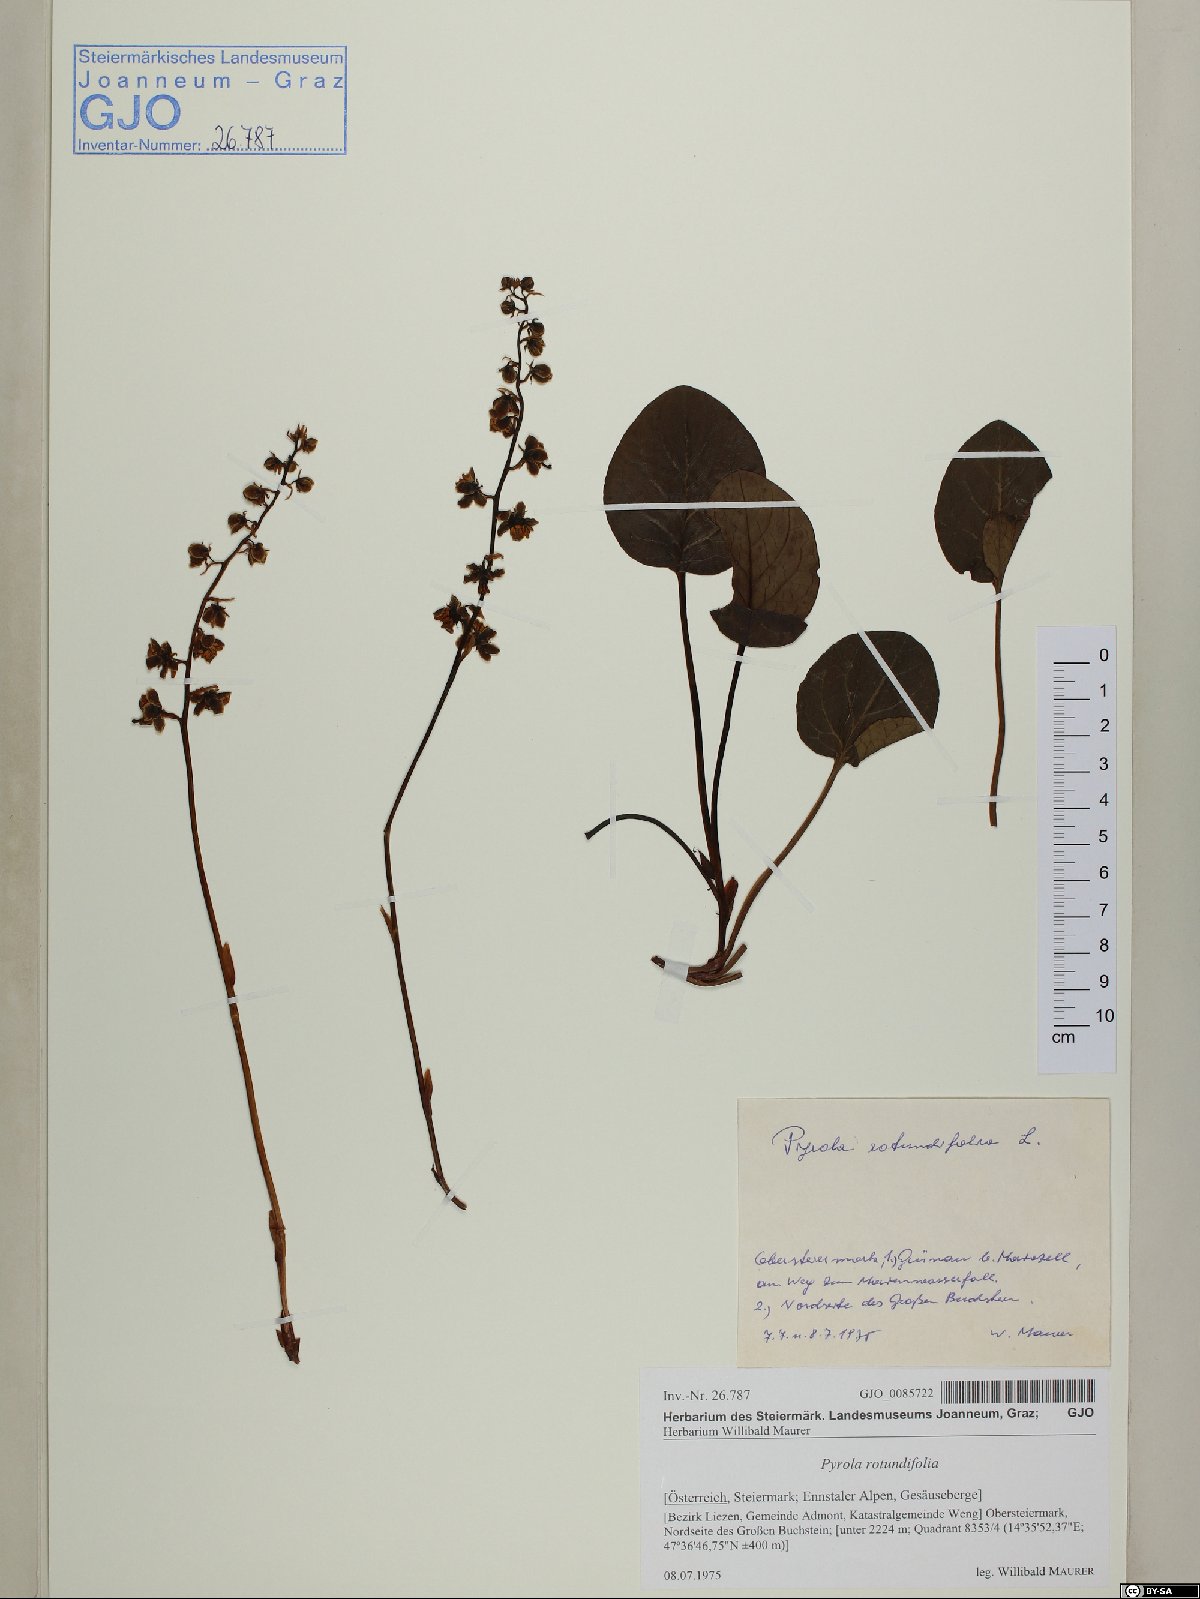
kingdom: Plantae
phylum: Tracheophyta
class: Magnoliopsida
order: Ericales
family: Ericaceae
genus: Pyrola
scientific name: Pyrola rotundifolia
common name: Round-leaved wintergreen
